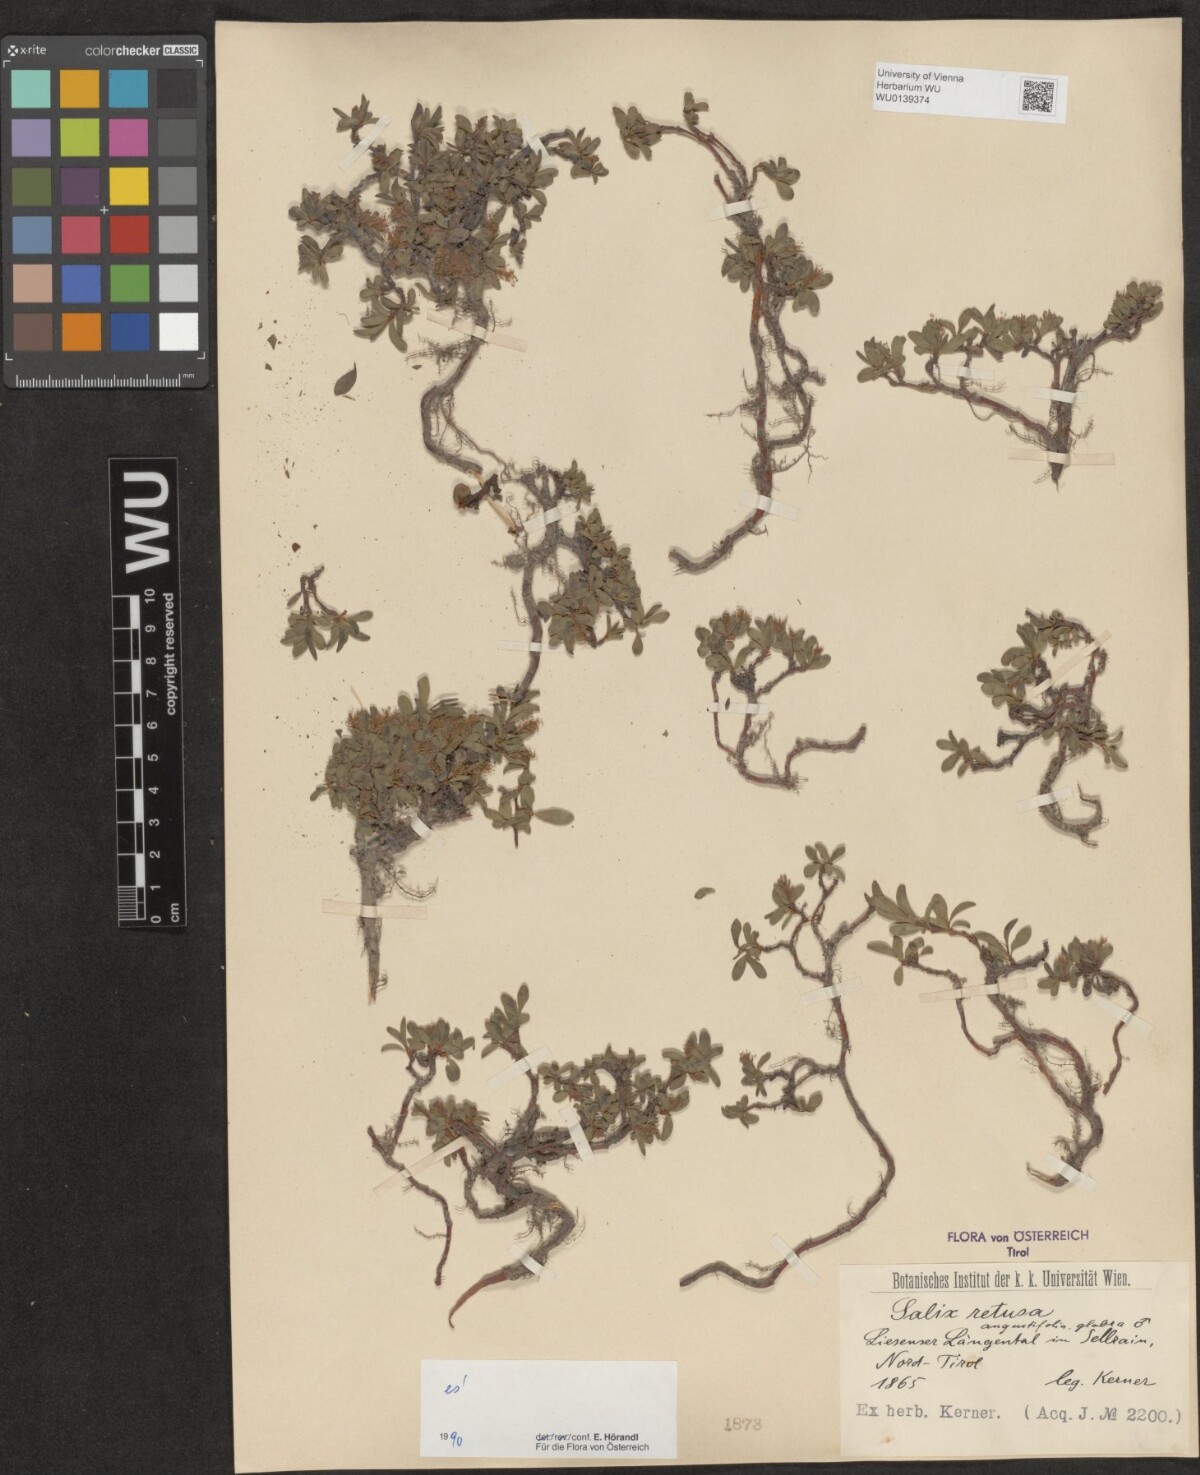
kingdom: Plantae
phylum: Tracheophyta
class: Magnoliopsida
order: Malpighiales
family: Salicaceae
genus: Salix
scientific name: Salix retusa
